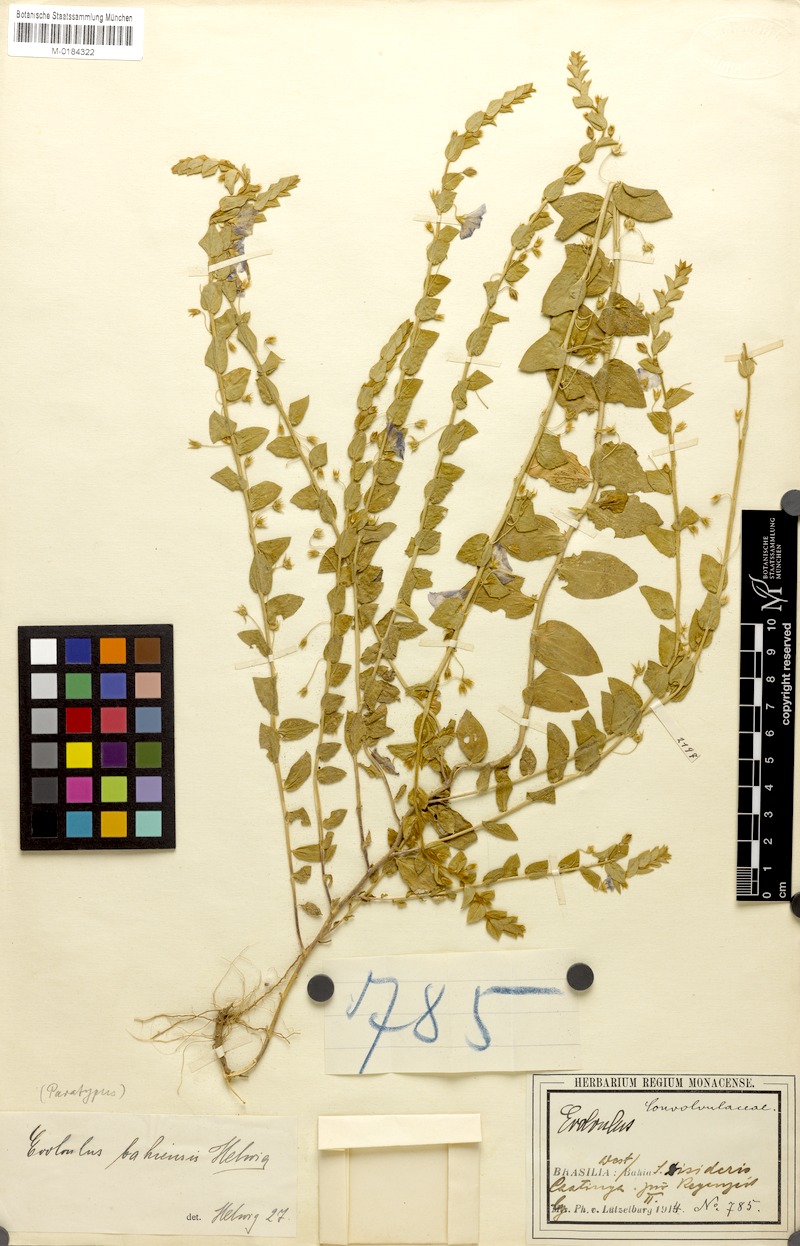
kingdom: Plantae
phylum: Tracheophyta
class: Magnoliopsida
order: Solanales
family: Convolvulaceae
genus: Evolvulus
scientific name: Evolvulus cordatus
